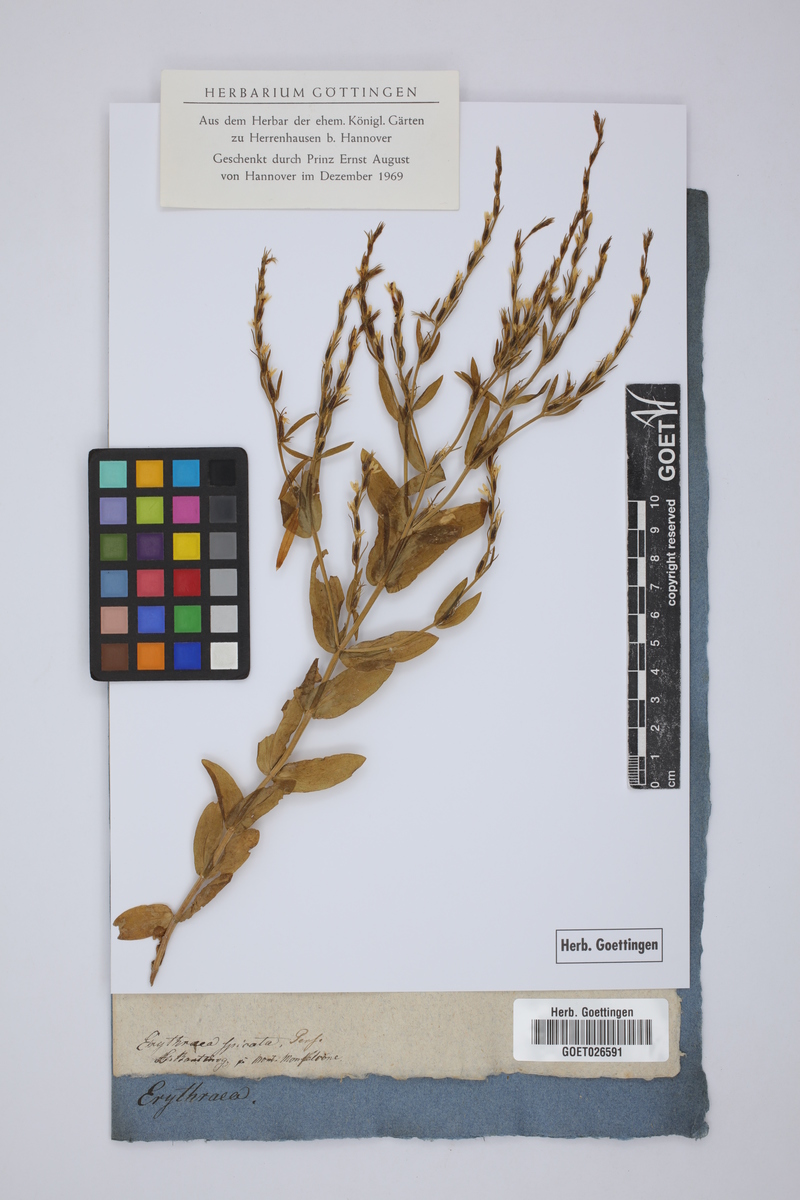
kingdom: Plantae
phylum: Tracheophyta
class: Magnoliopsida
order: Gentianales
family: Gentianaceae
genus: Schenkia
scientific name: Schenkia spicata
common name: Spiked centaury
